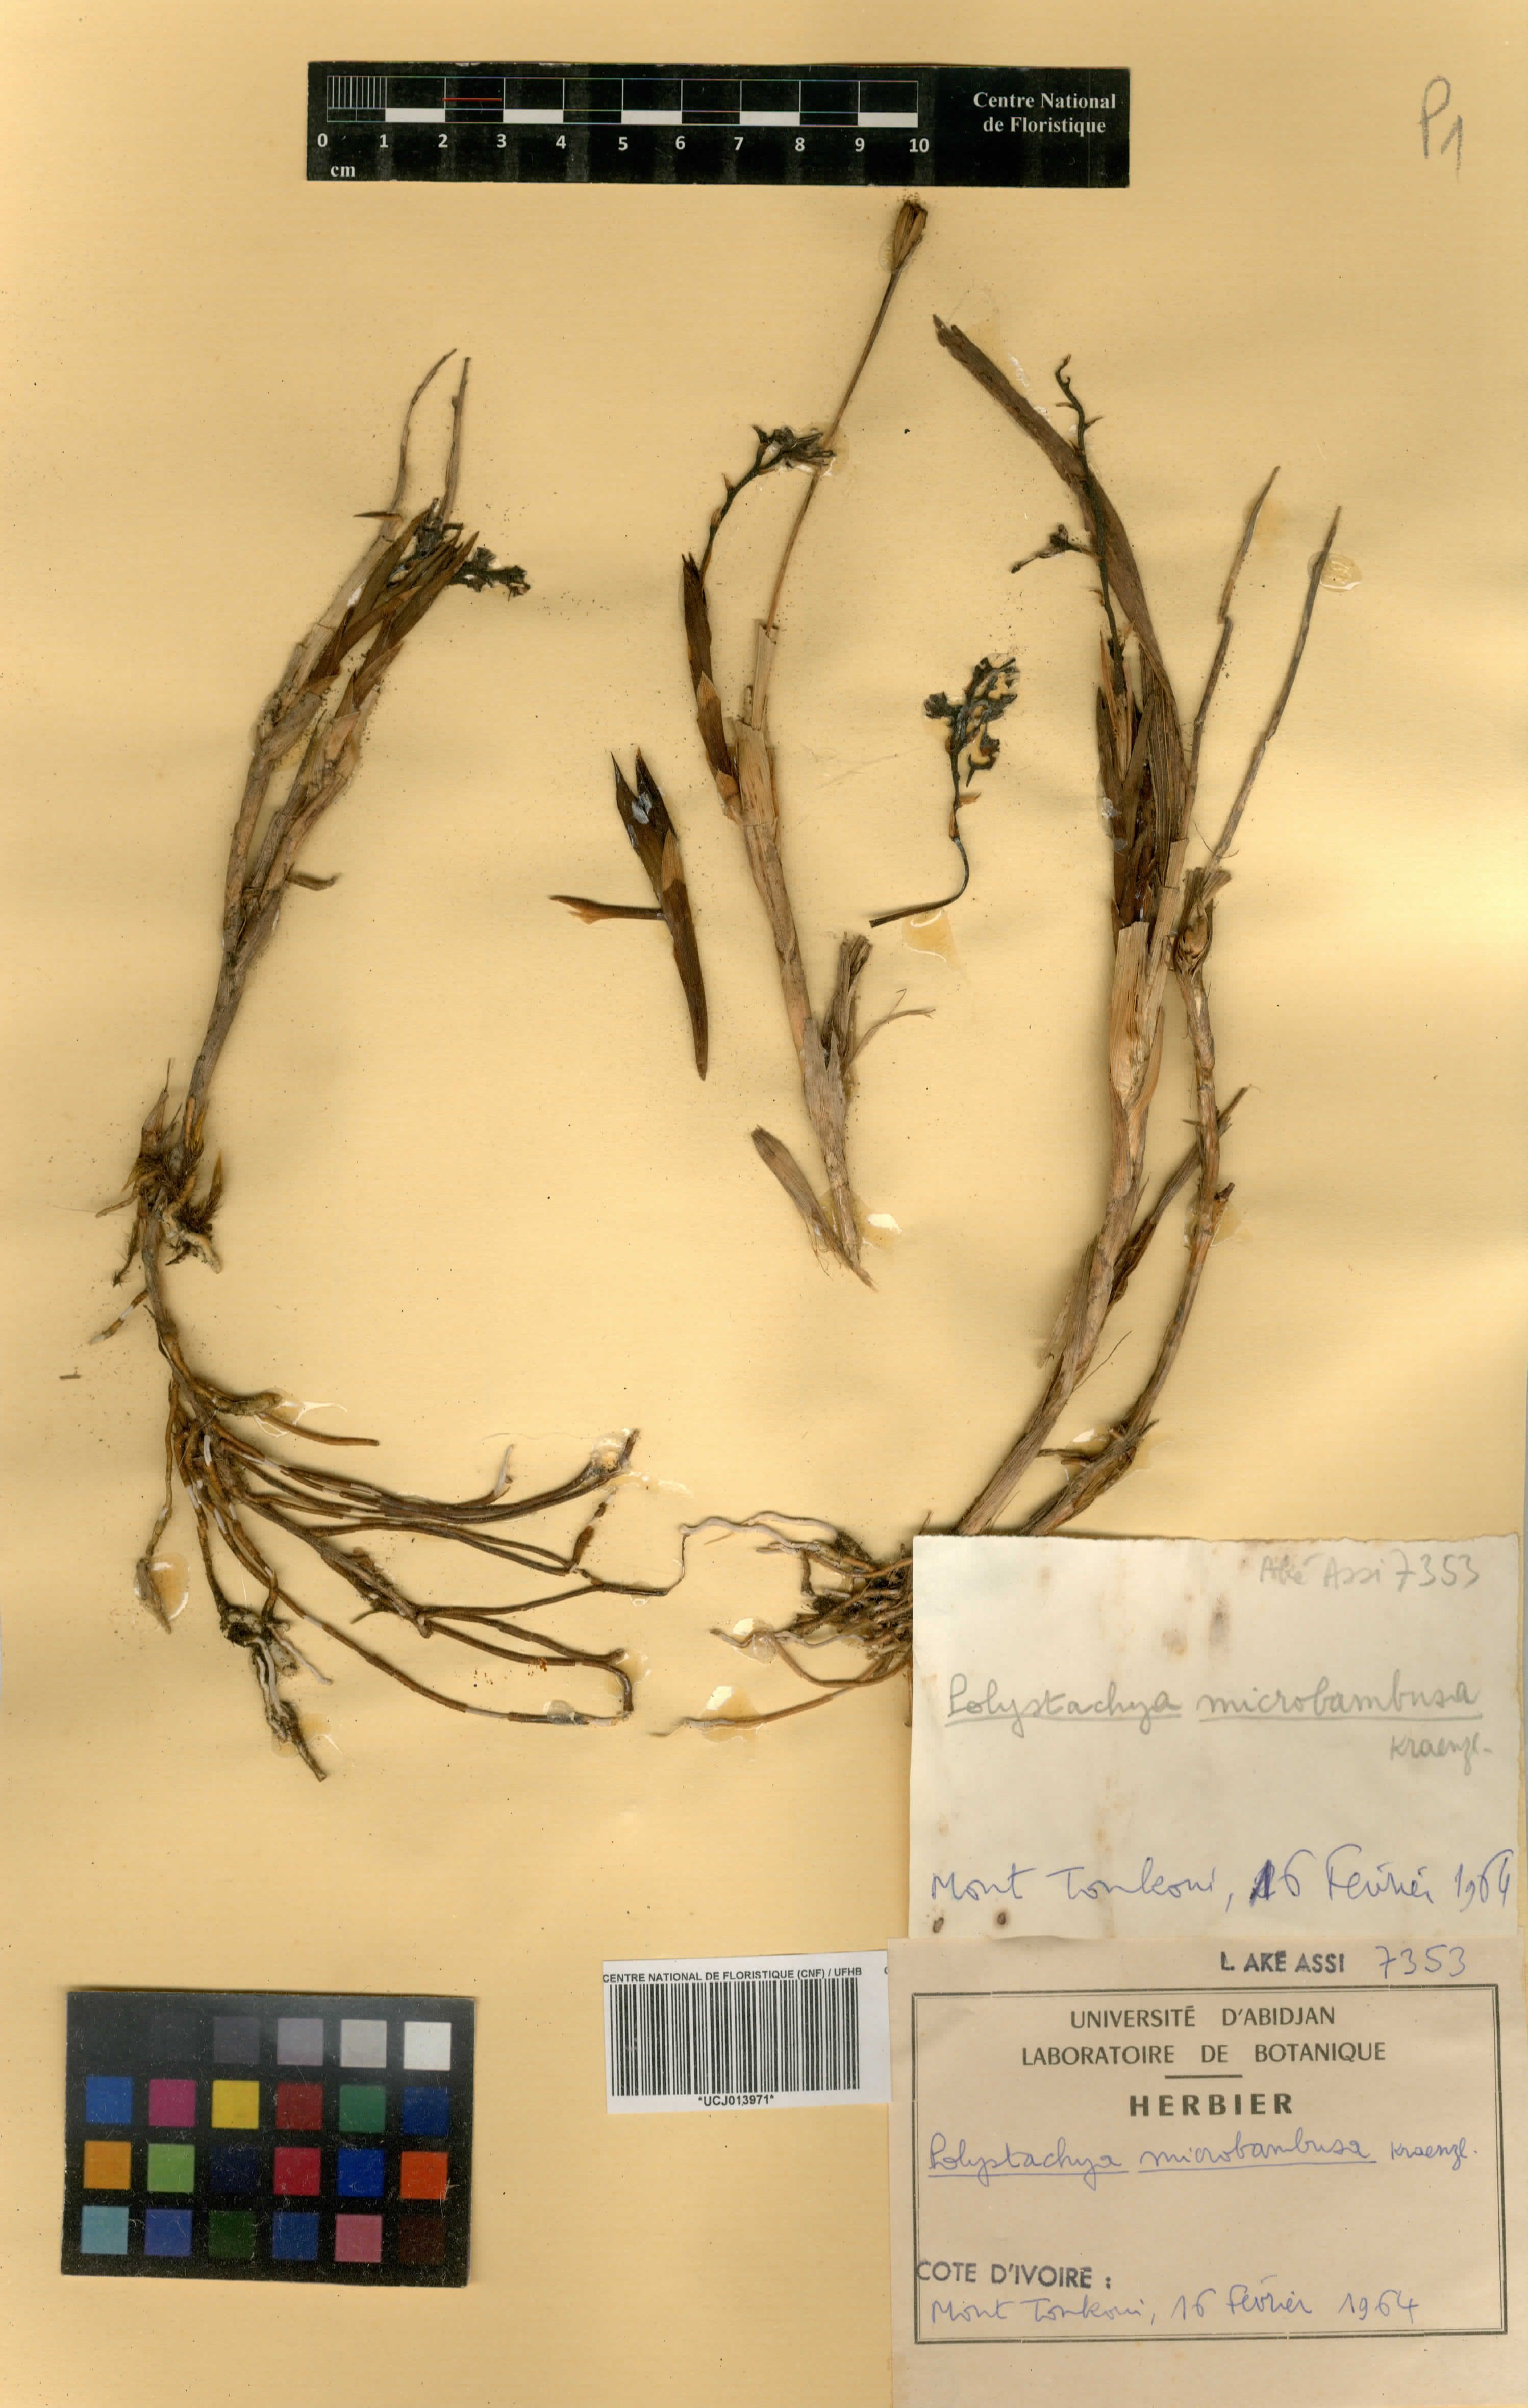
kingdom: Plantae
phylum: Tracheophyta
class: Liliopsida
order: Asparagales
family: Orchidaceae
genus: Polystachya
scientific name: Polystachya microbambusa
